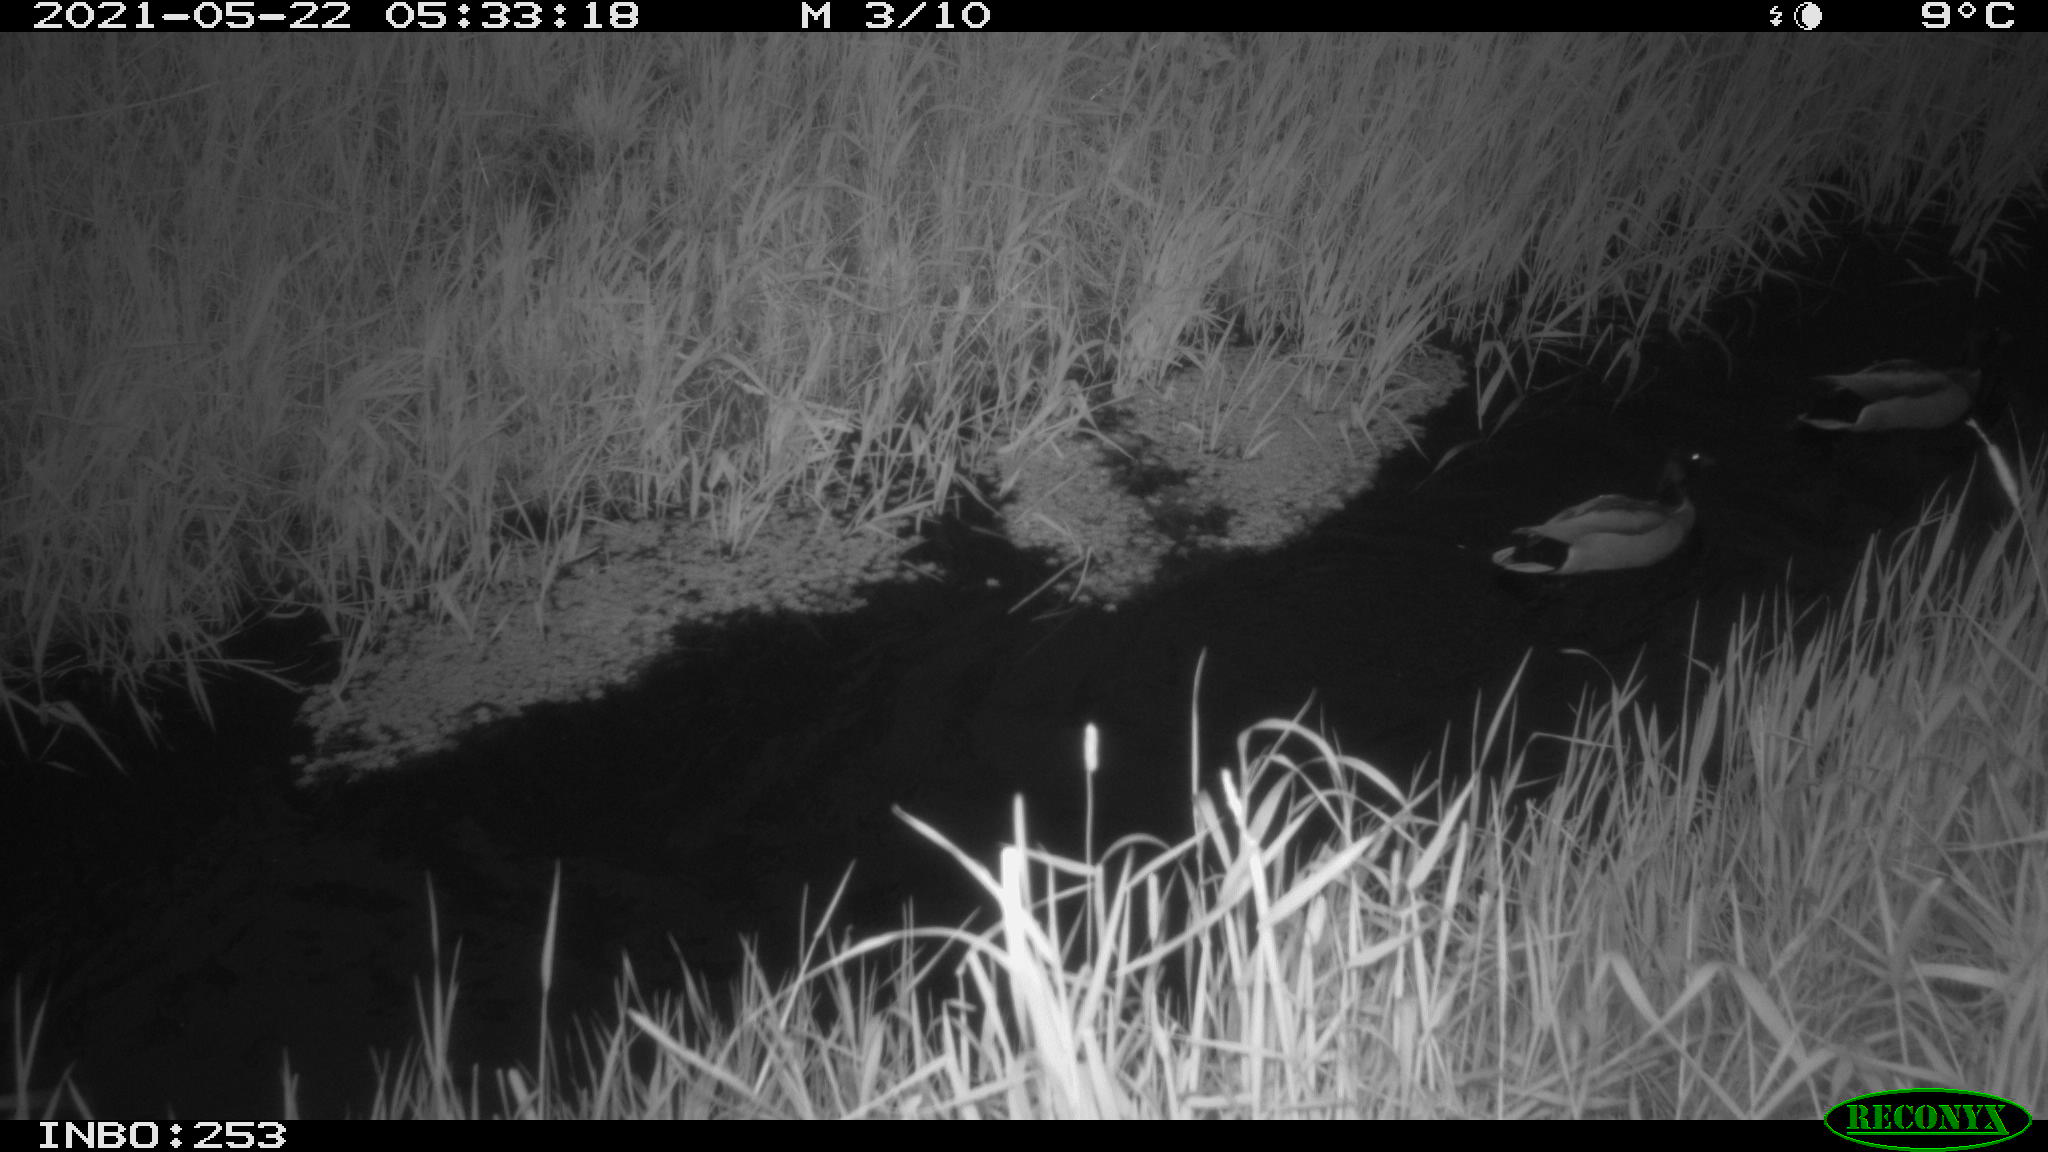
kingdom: Animalia
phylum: Chordata
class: Aves
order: Anseriformes
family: Anatidae
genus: Anas
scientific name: Anas platyrhynchos
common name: Mallard
